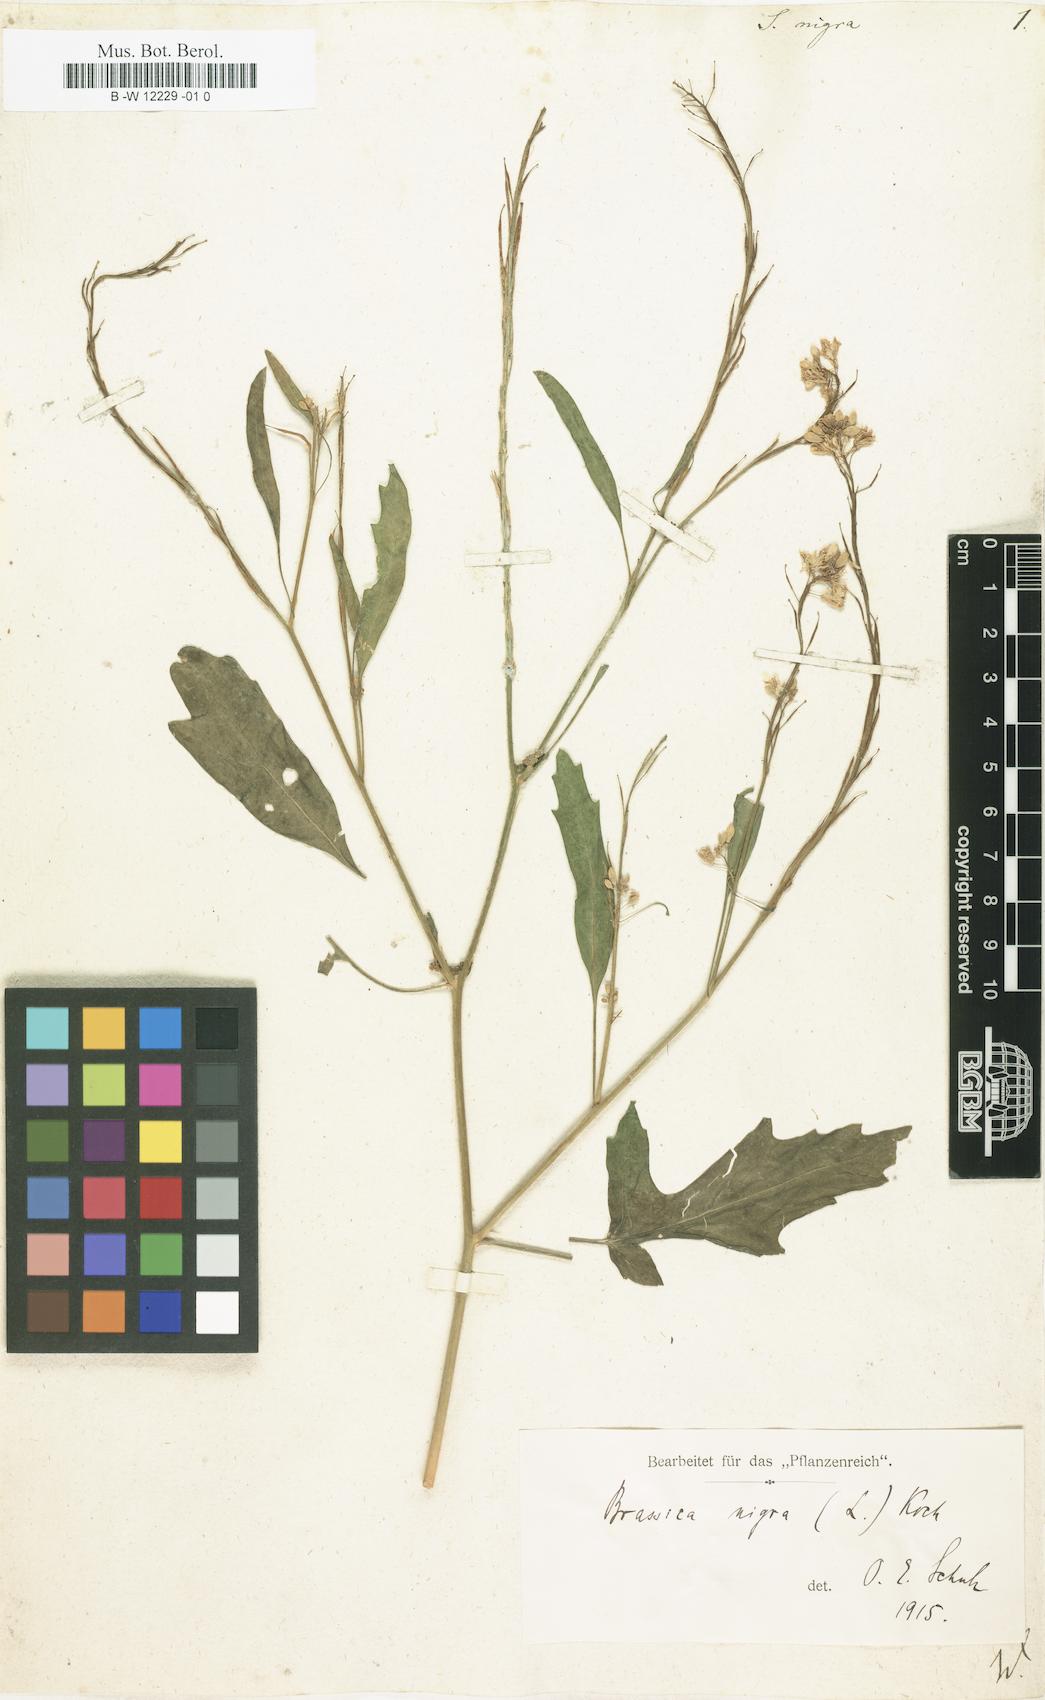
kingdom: Plantae
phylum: Tracheophyta
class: Magnoliopsida
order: Brassicales
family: Brassicaceae
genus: Sinapis
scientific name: Sinapis nigra
